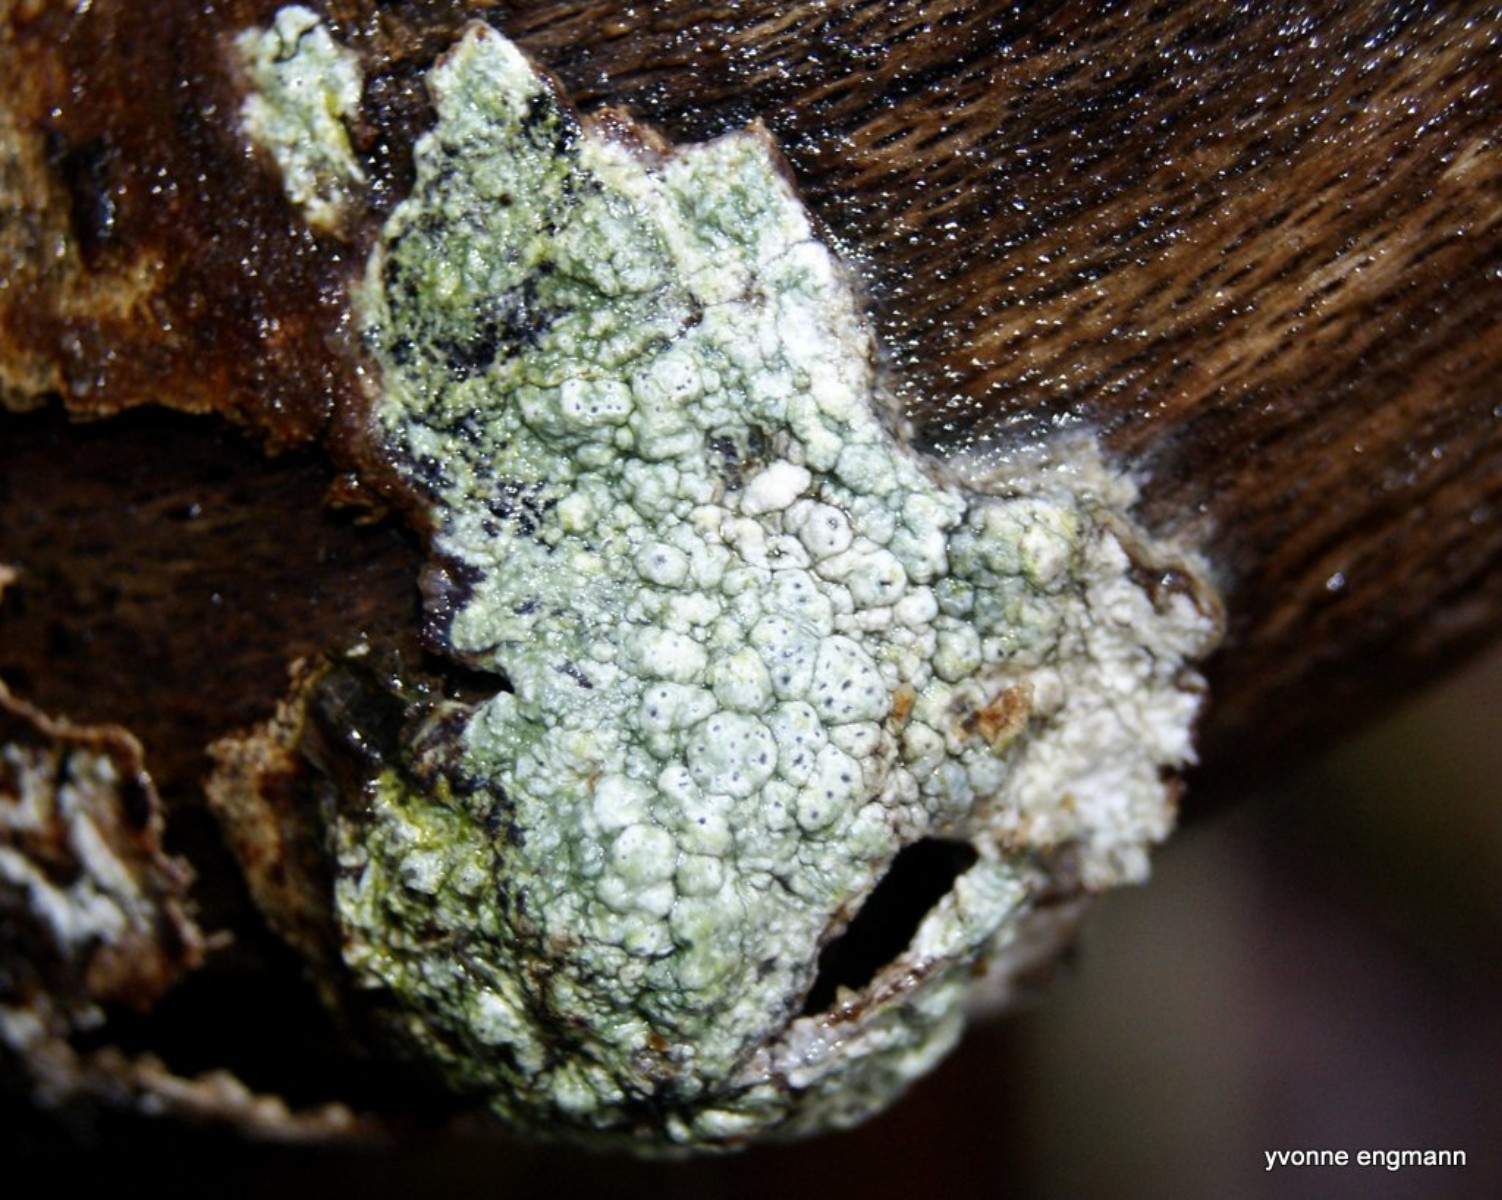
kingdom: Fungi
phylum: Ascomycota
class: Lecanoromycetes
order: Pertusariales
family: Pertusariaceae
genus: Pertusaria
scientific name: Pertusaria pertusa
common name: almindelig prikvortelav
